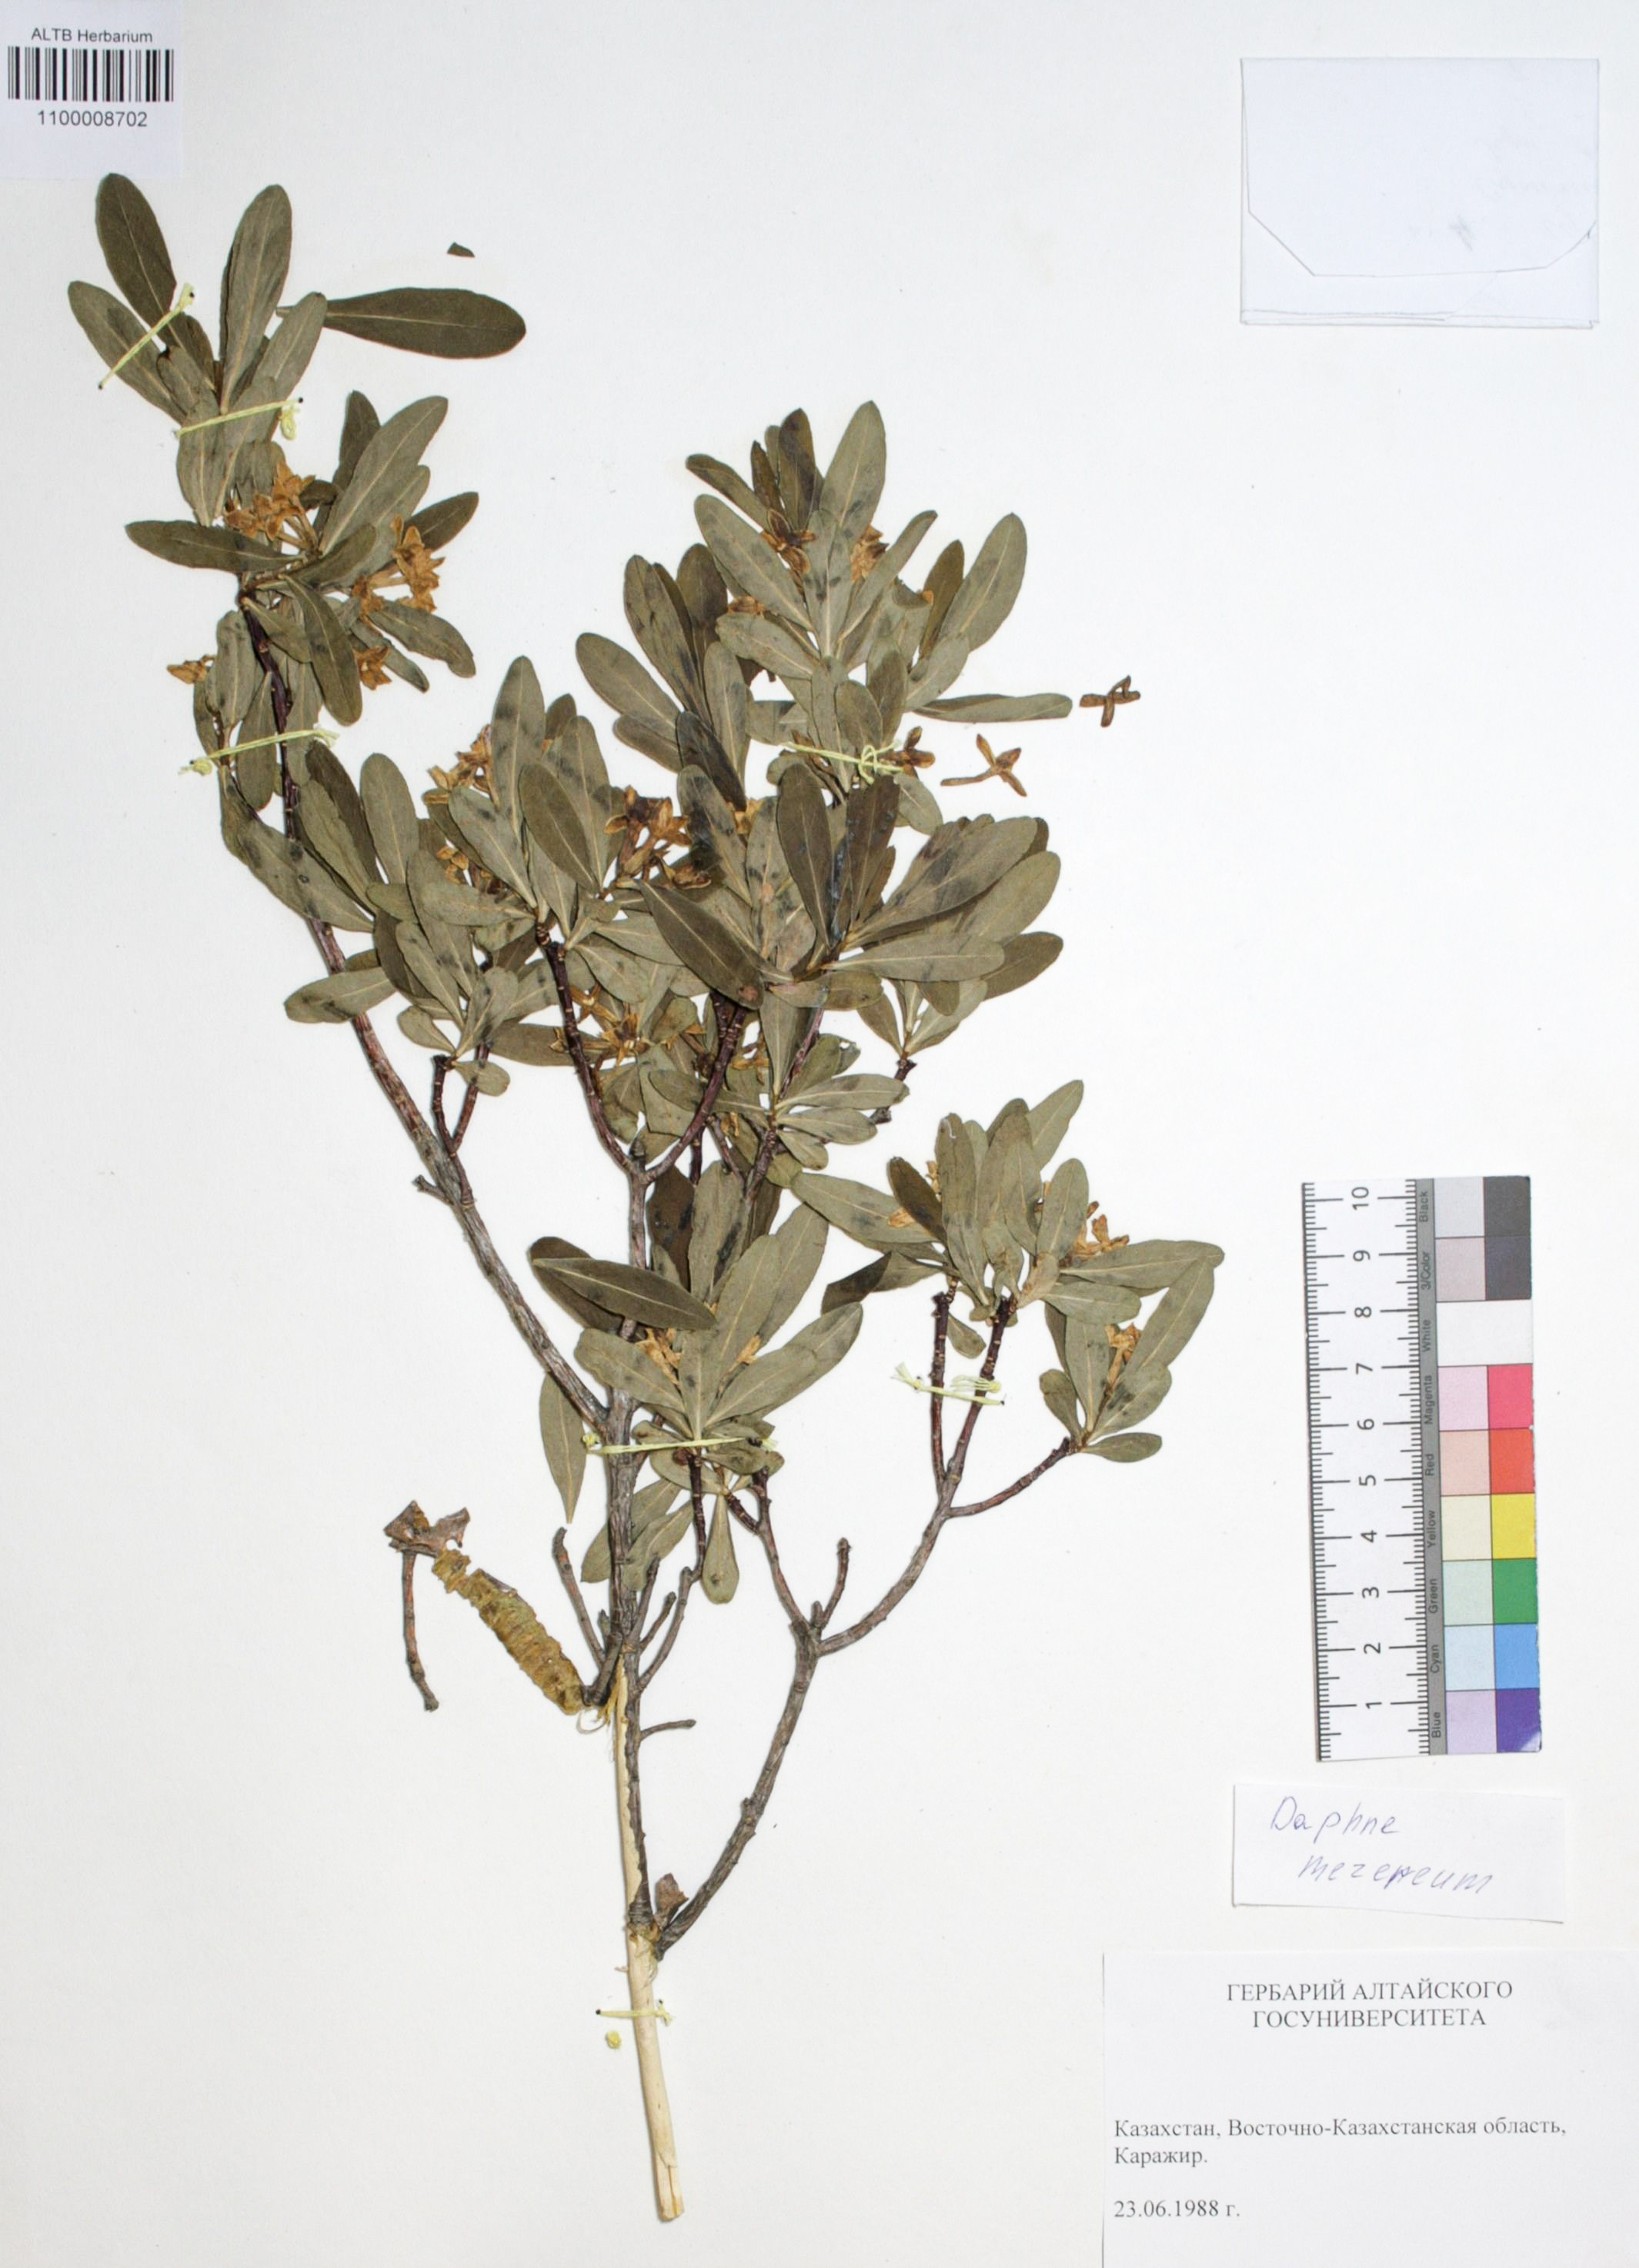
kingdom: Plantae
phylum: Tracheophyta
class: Magnoliopsida
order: Malvales
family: Thymelaeaceae
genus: Daphne
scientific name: Daphne mezereum
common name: Mezereon
